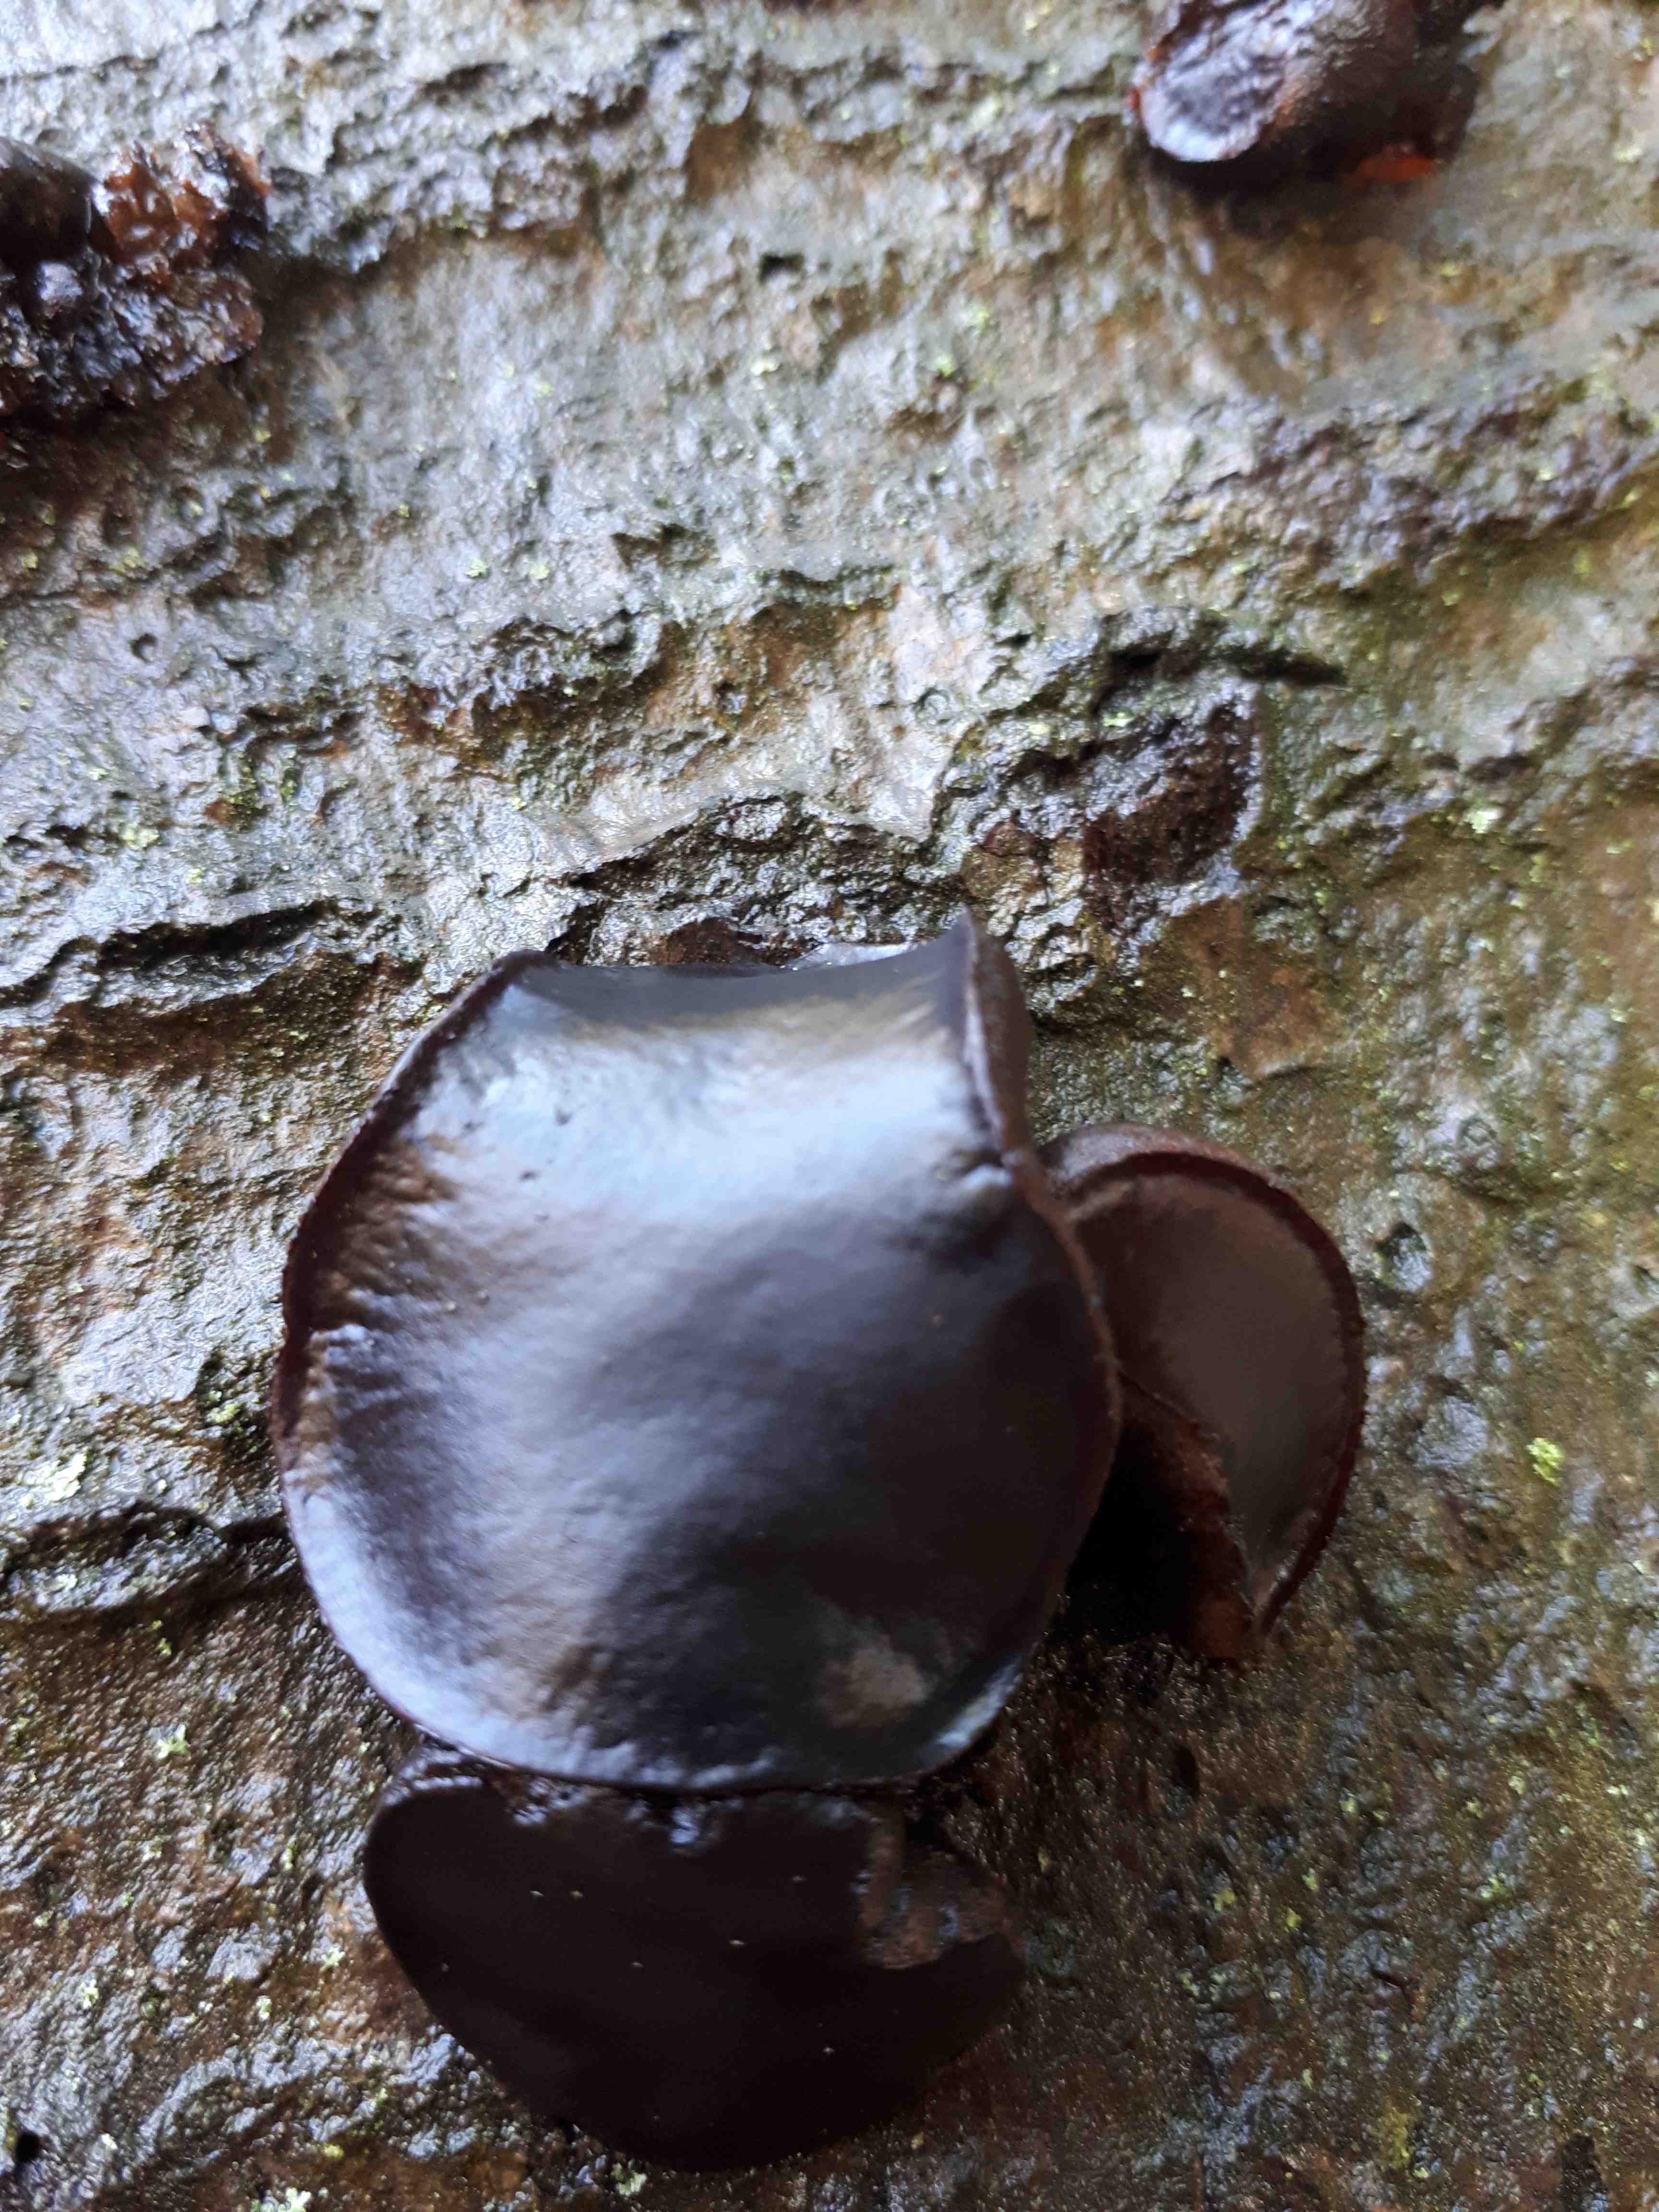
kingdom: Fungi
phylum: Ascomycota
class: Leotiomycetes
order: Phacidiales
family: Phacidiaceae
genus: Bulgaria
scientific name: Bulgaria inquinans
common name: afsmittende topsvamp
